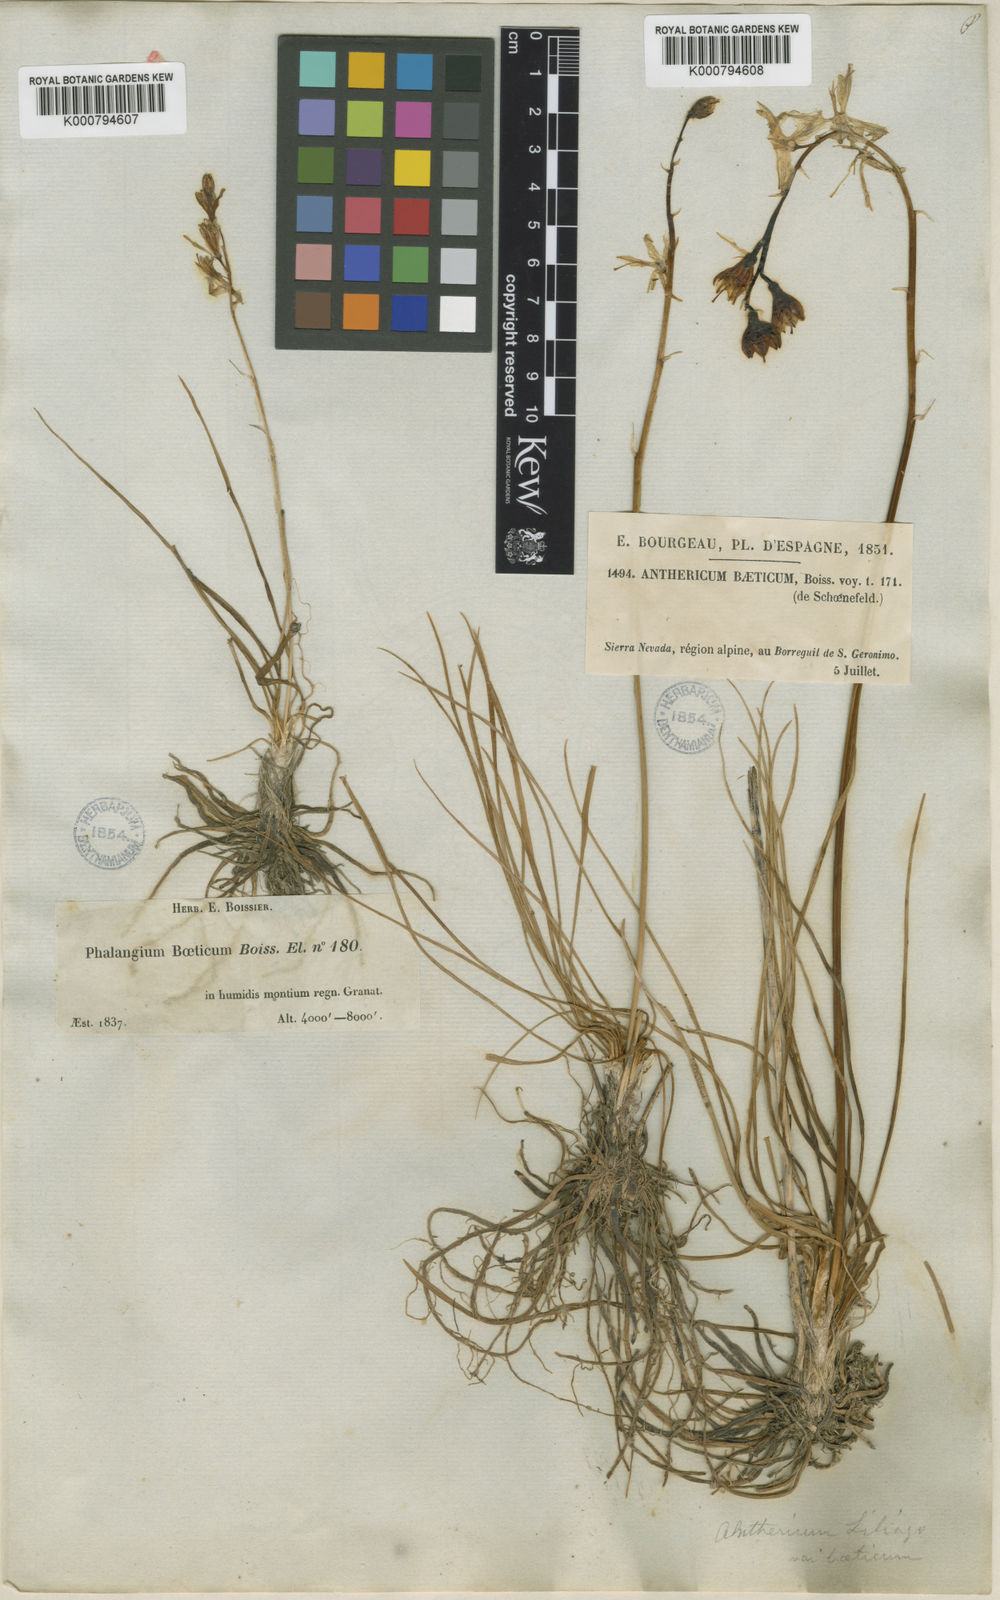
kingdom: Plantae
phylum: Tracheophyta
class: Liliopsida
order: Asparagales
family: Asparagaceae
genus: Anthericum
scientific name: Anthericum liliago
